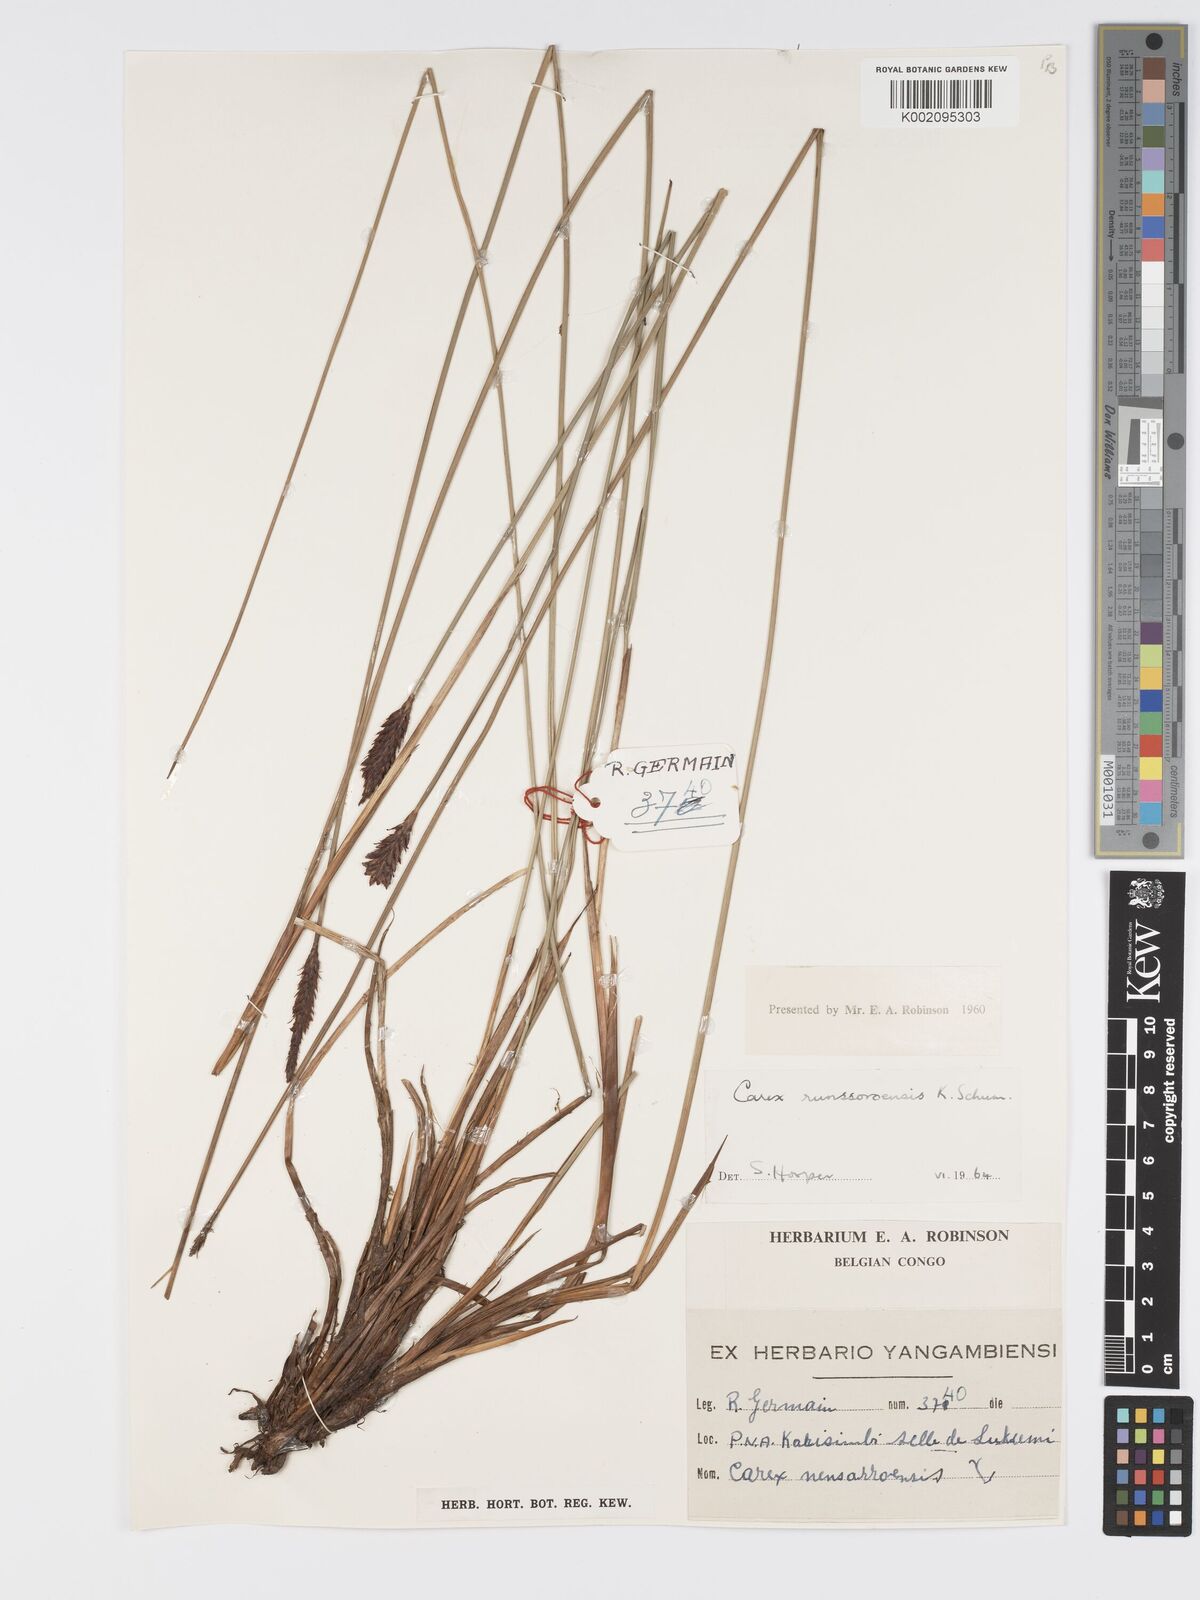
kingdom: Plantae
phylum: Tracheophyta
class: Liliopsida
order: Poales
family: Cyperaceae
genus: Carex
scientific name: Carex runssoroensis
